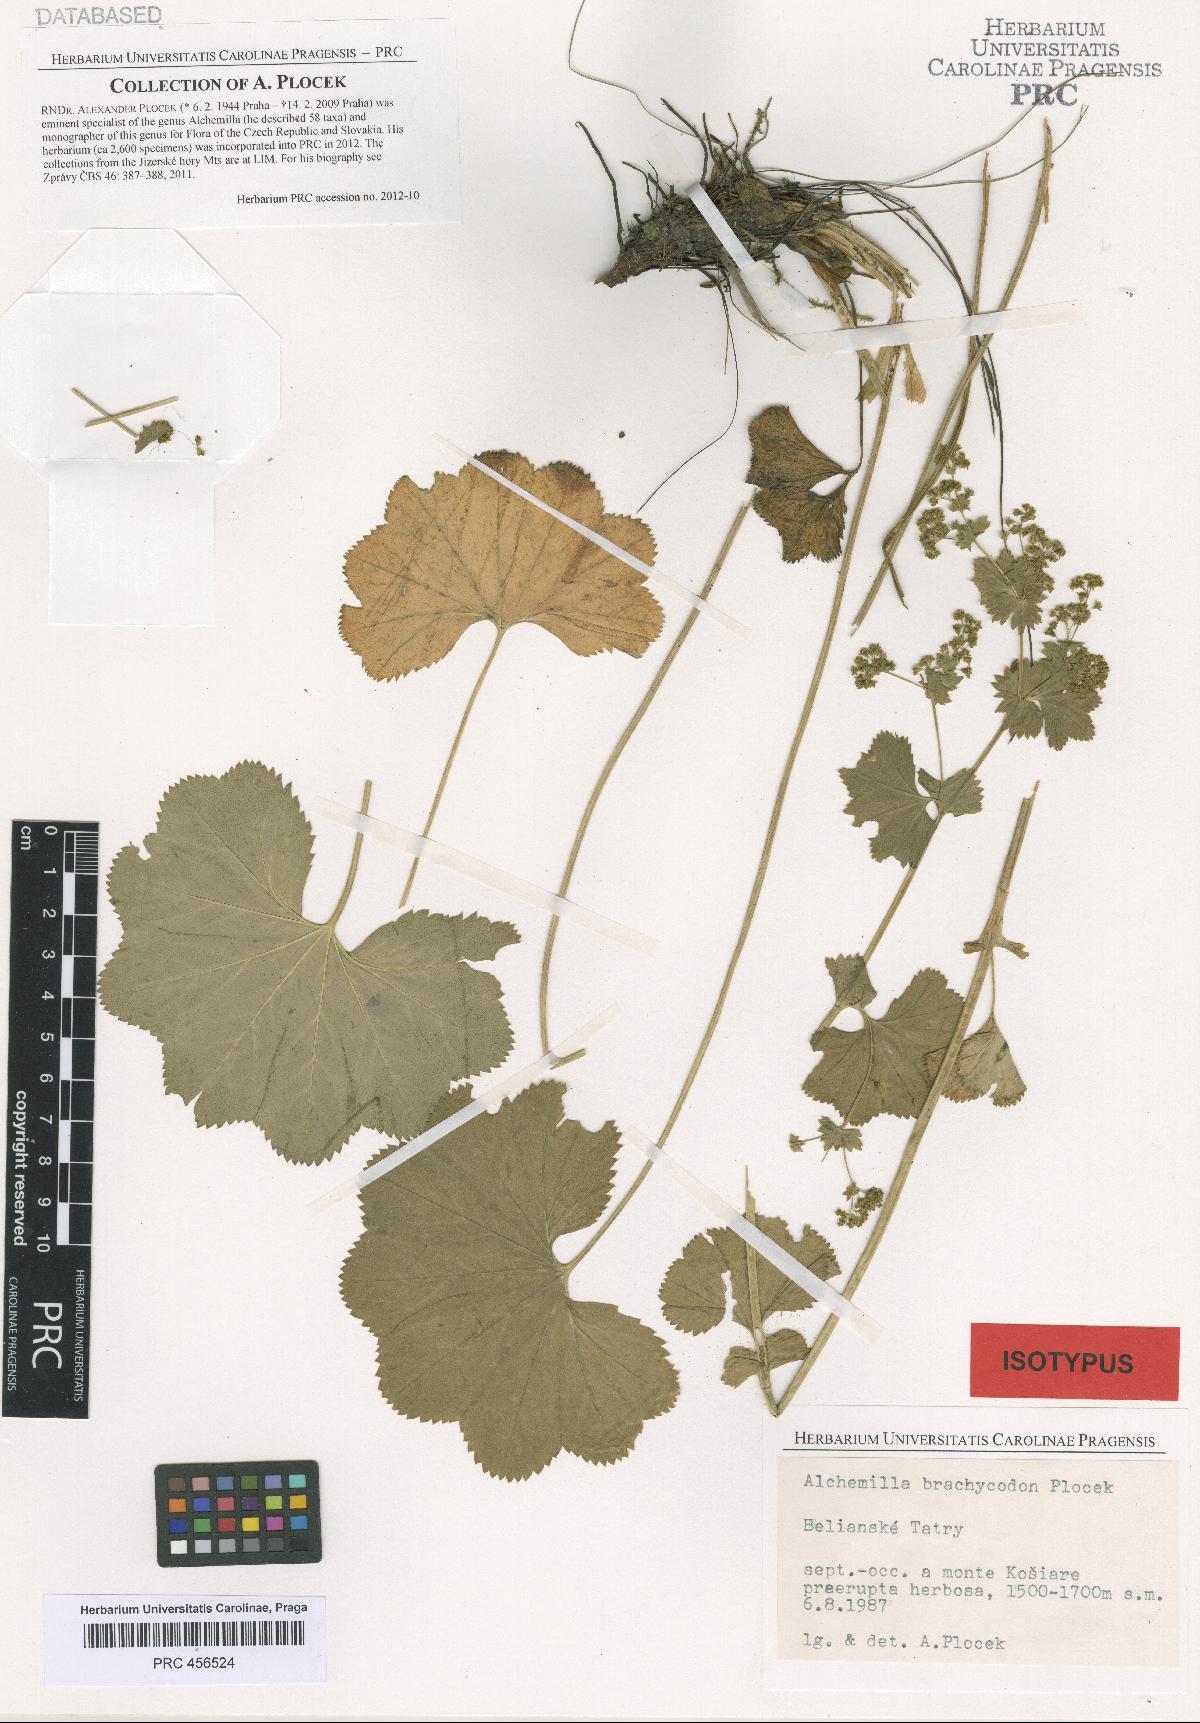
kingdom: Plantae
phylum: Tracheophyta
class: Magnoliopsida
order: Rosales
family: Rosaceae
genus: Alchemilla
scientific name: Alchemilla brachycodon
